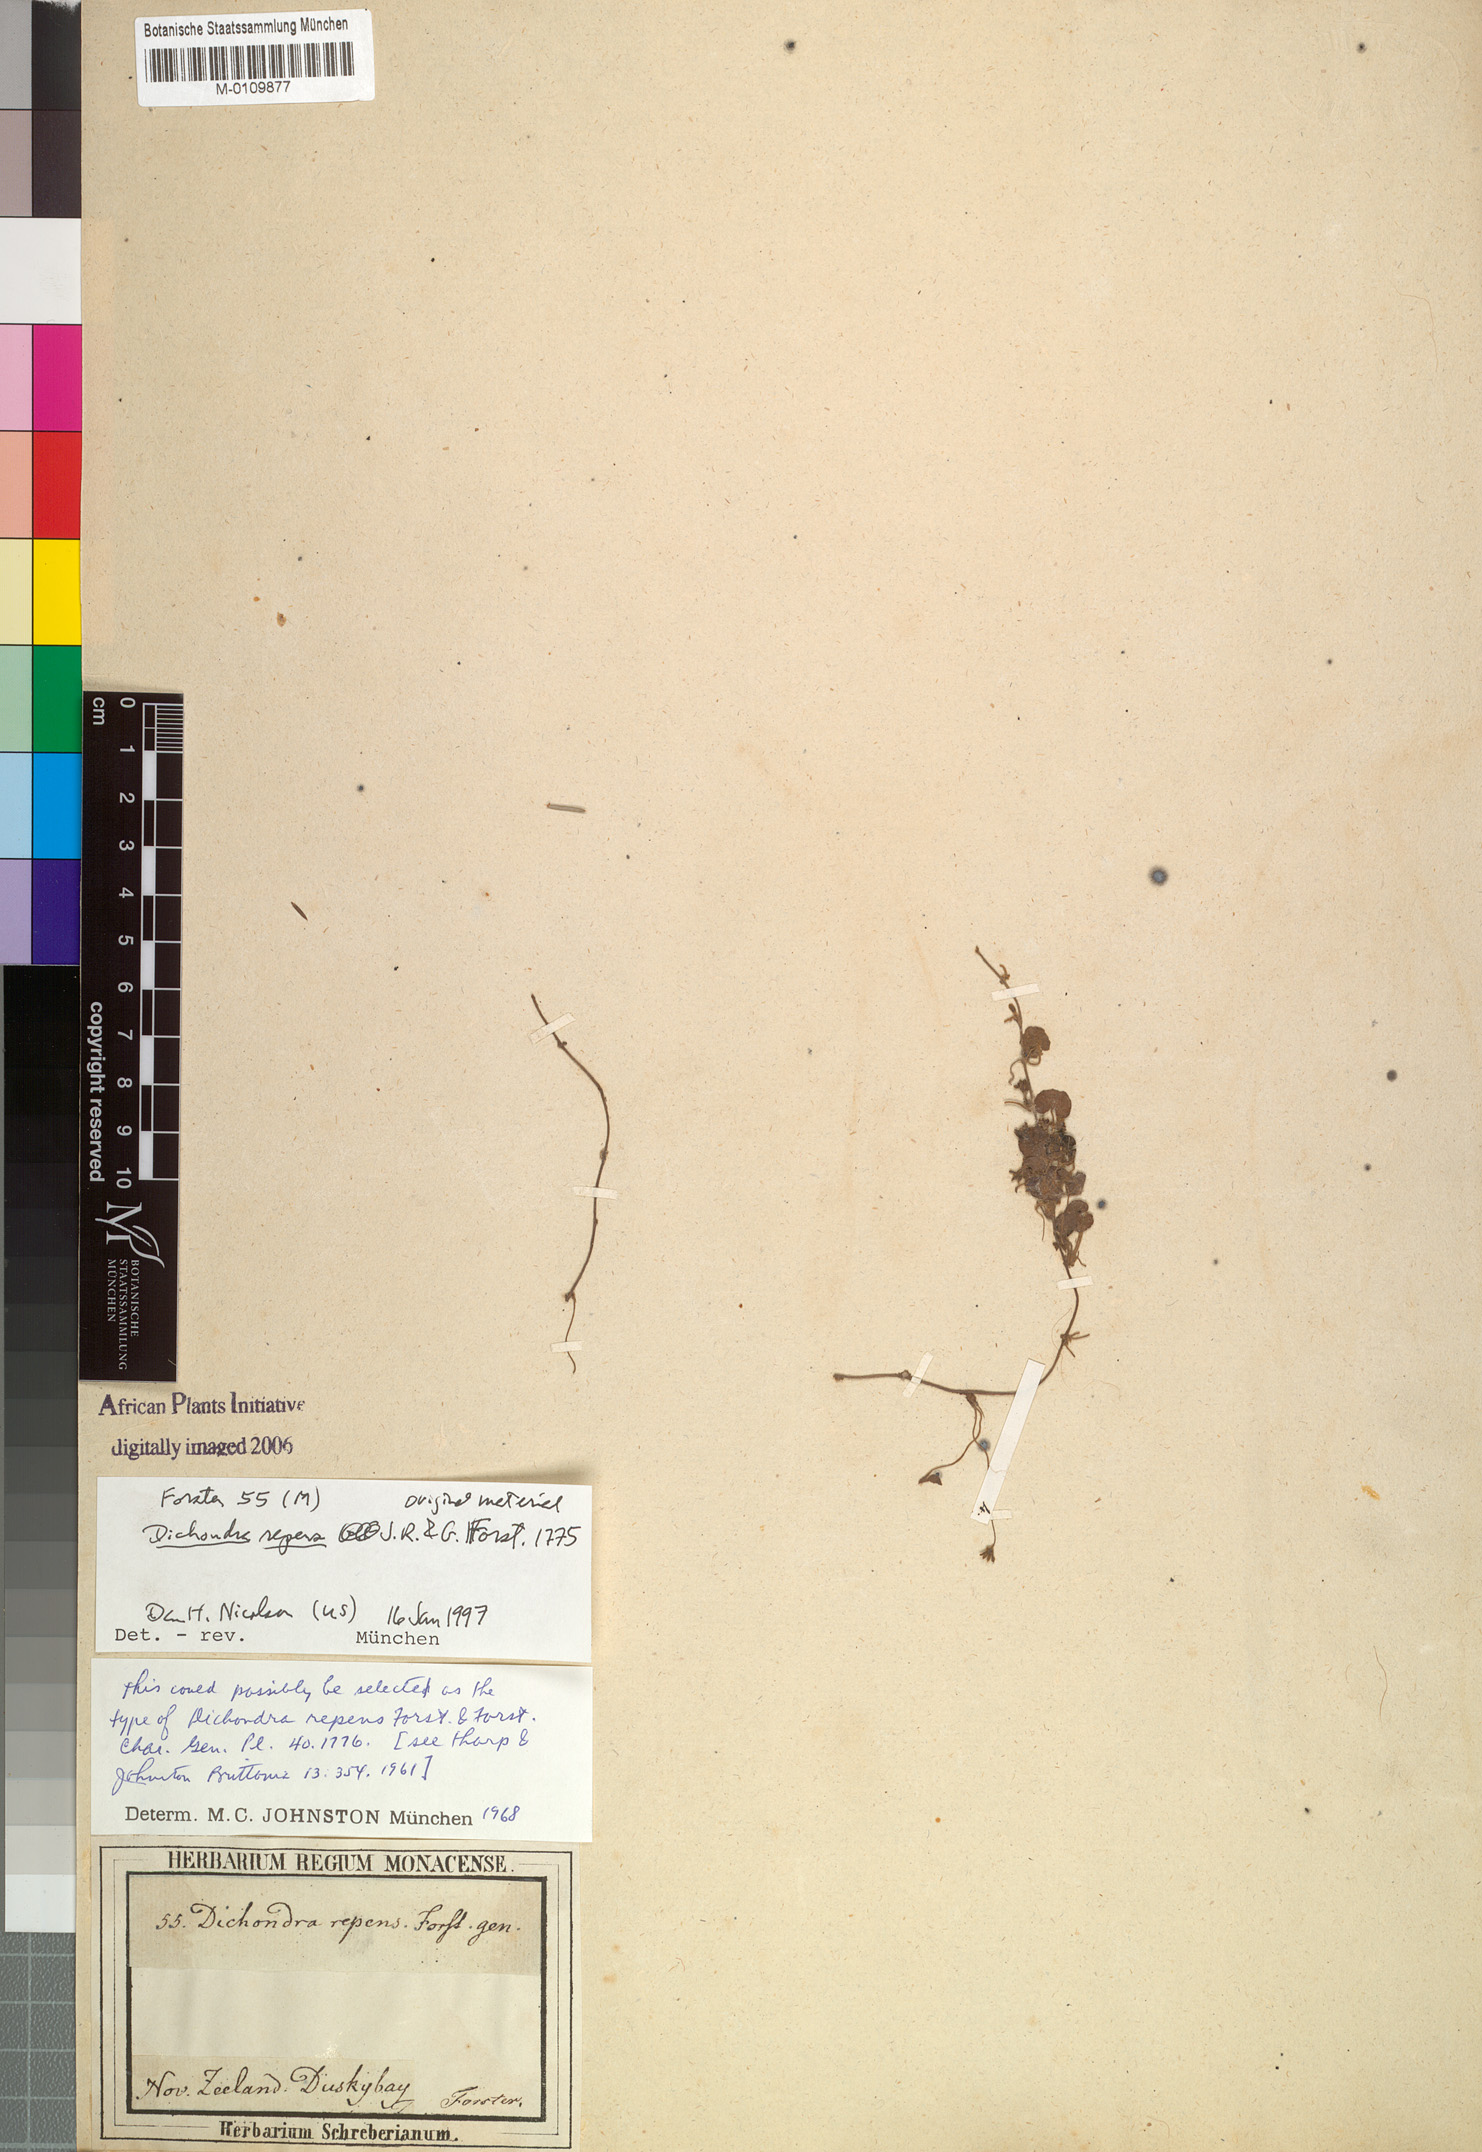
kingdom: Plantae
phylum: Tracheophyta
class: Magnoliopsida
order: Solanales
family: Convolvulaceae
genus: Dichondra
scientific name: Dichondra repens
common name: Kidneyweed
